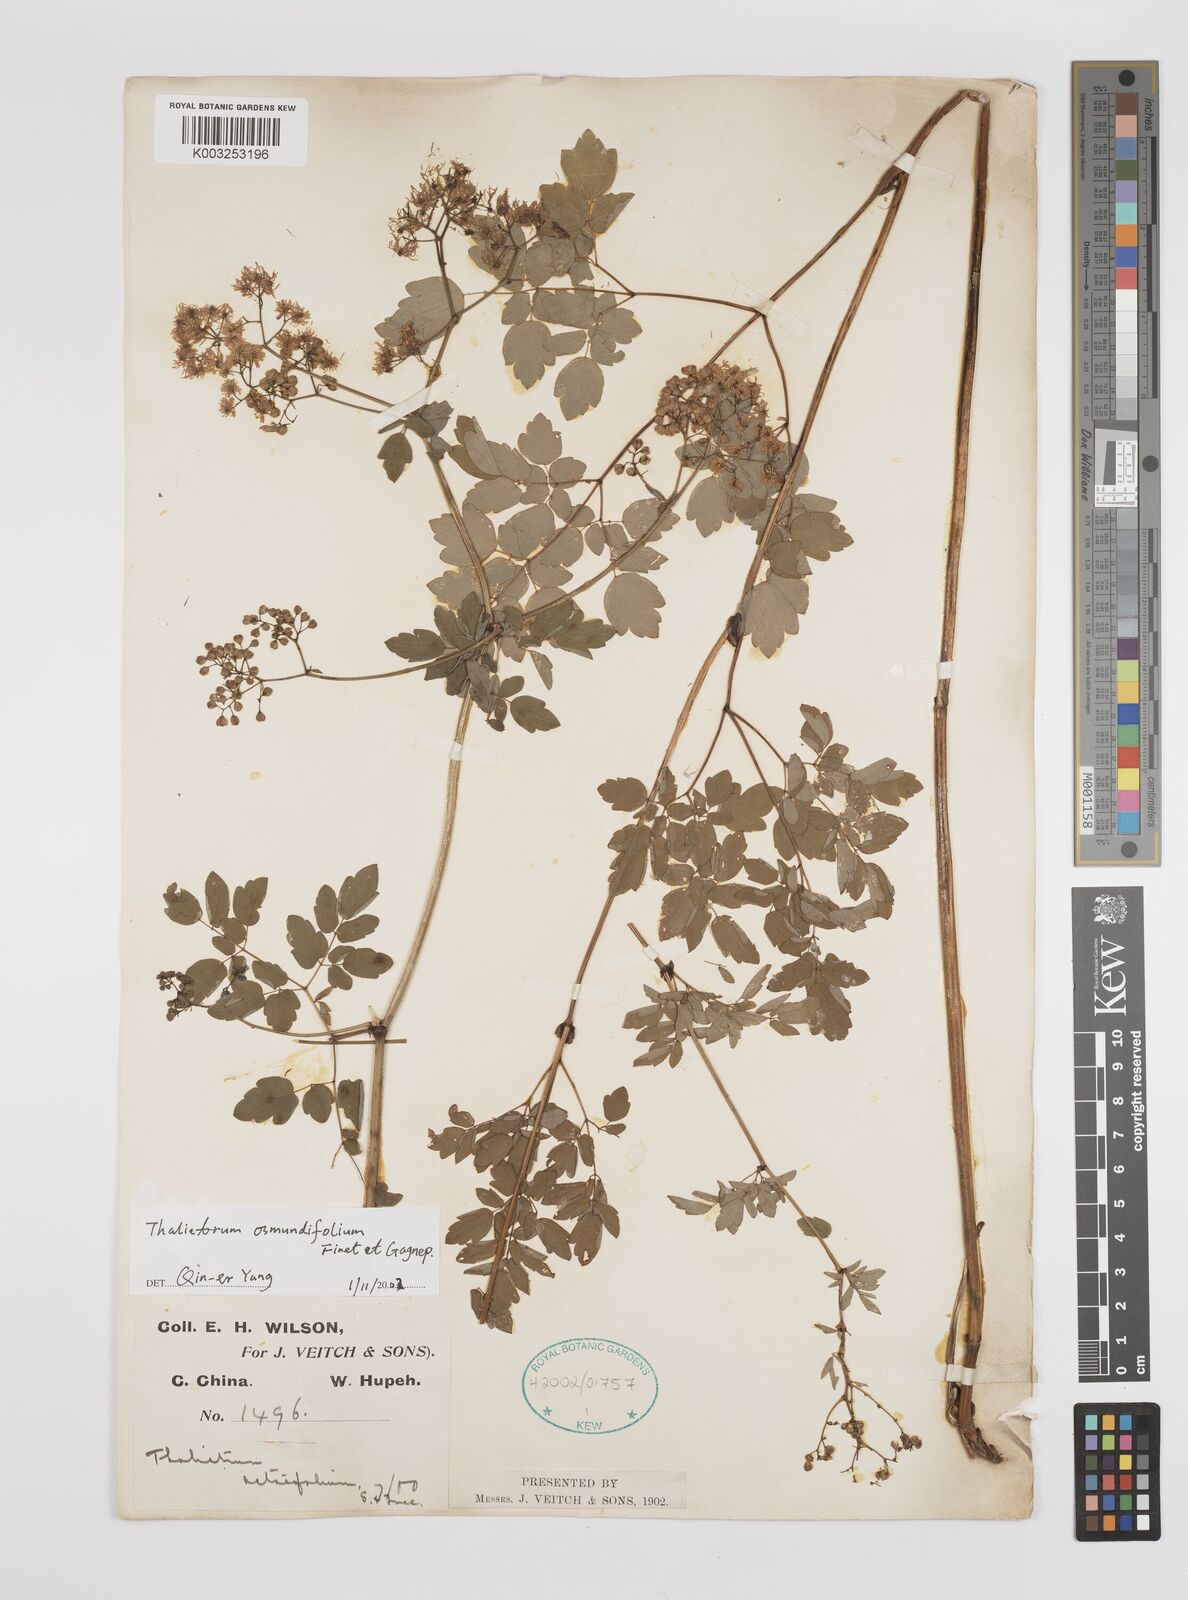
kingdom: Plantae
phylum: Tracheophyta
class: Magnoliopsida
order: Ranunculales
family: Ranunculaceae
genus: Thalictrum
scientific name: Thalictrum javanicum
